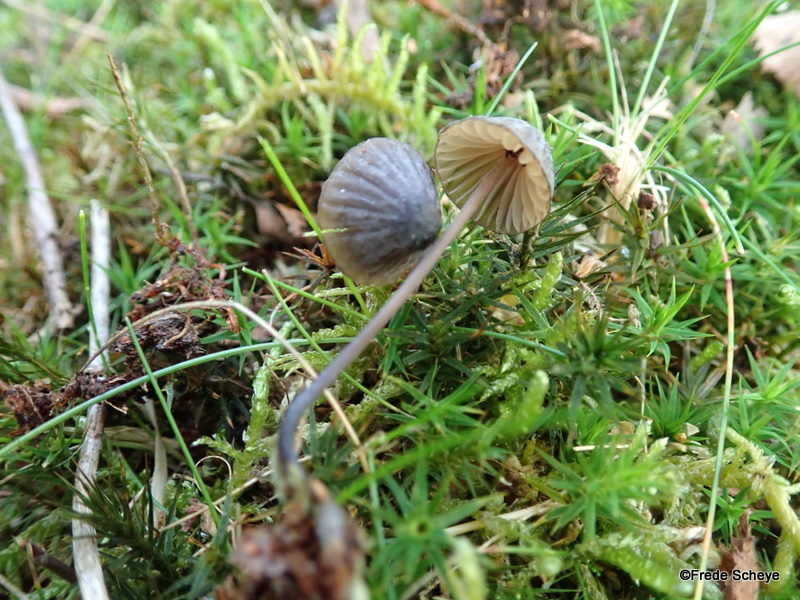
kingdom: Fungi
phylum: Basidiomycota
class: Agaricomycetes
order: Agaricales
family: Mycenaceae
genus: Mycena
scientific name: Mycena galopus
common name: hvidmælket huesvamp
